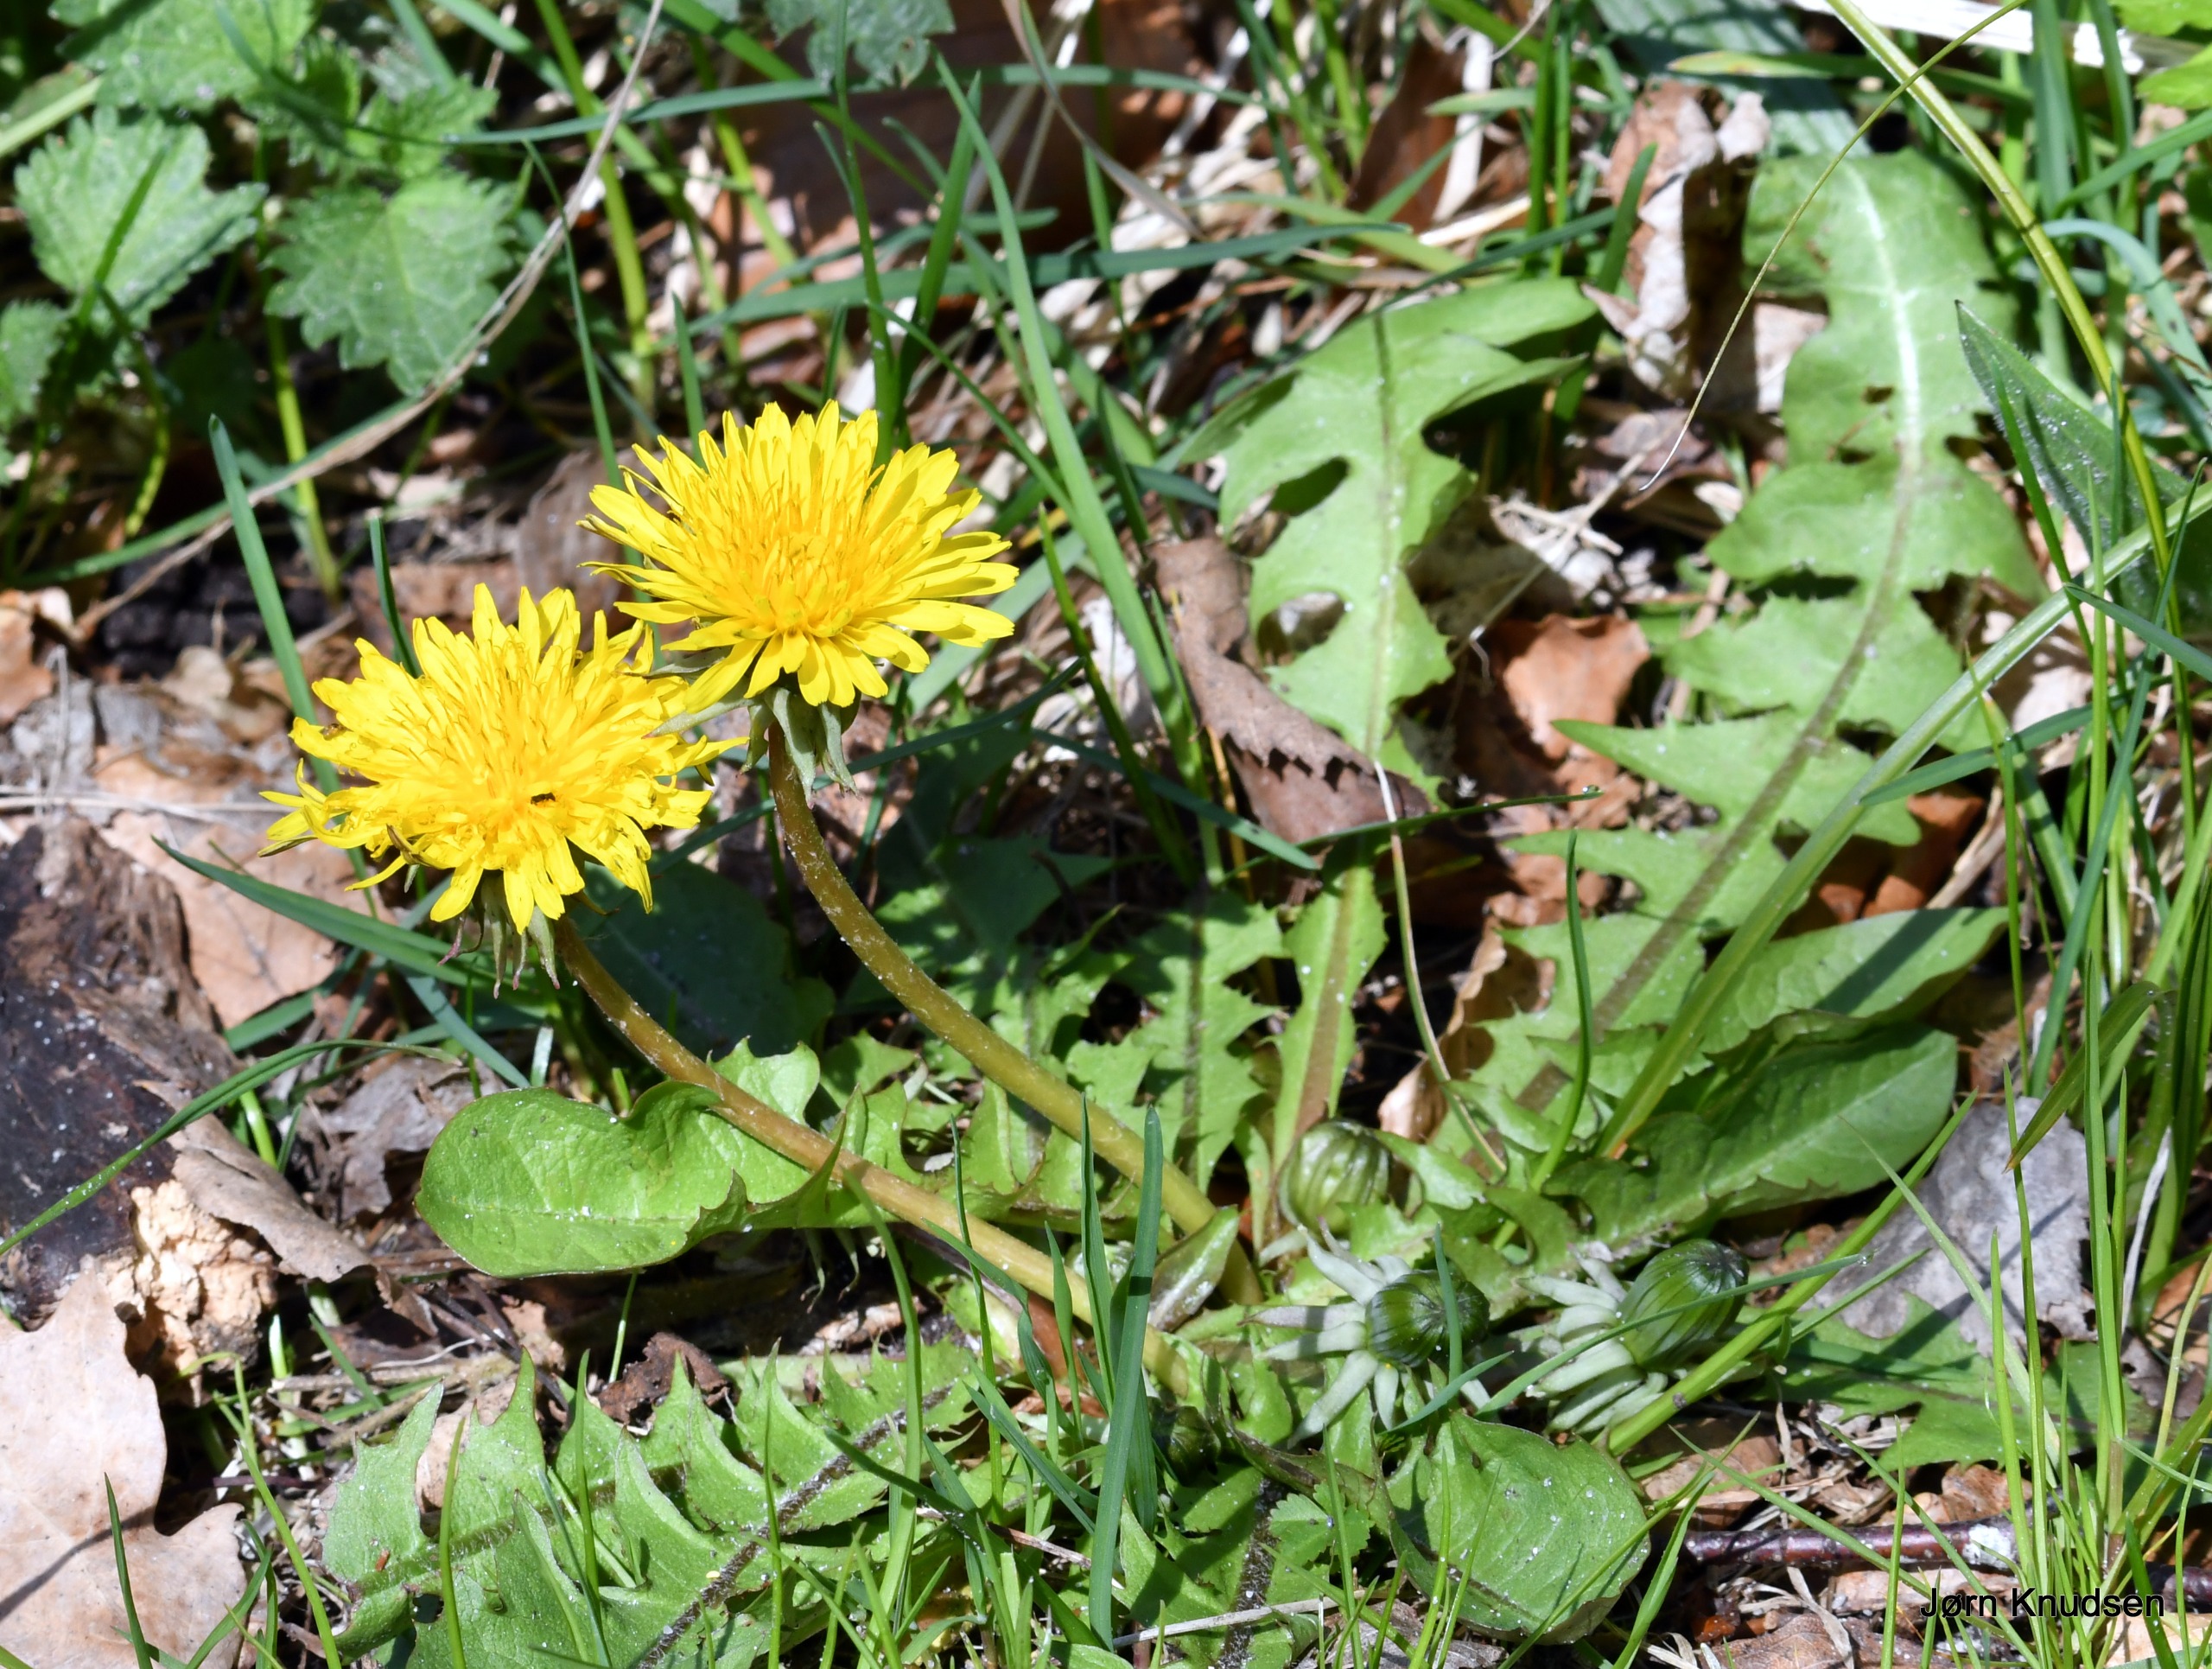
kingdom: Plantae
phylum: Tracheophyta
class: Magnoliopsida
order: Asterales
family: Asteraceae
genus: Taraxacum
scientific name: Taraxacum
